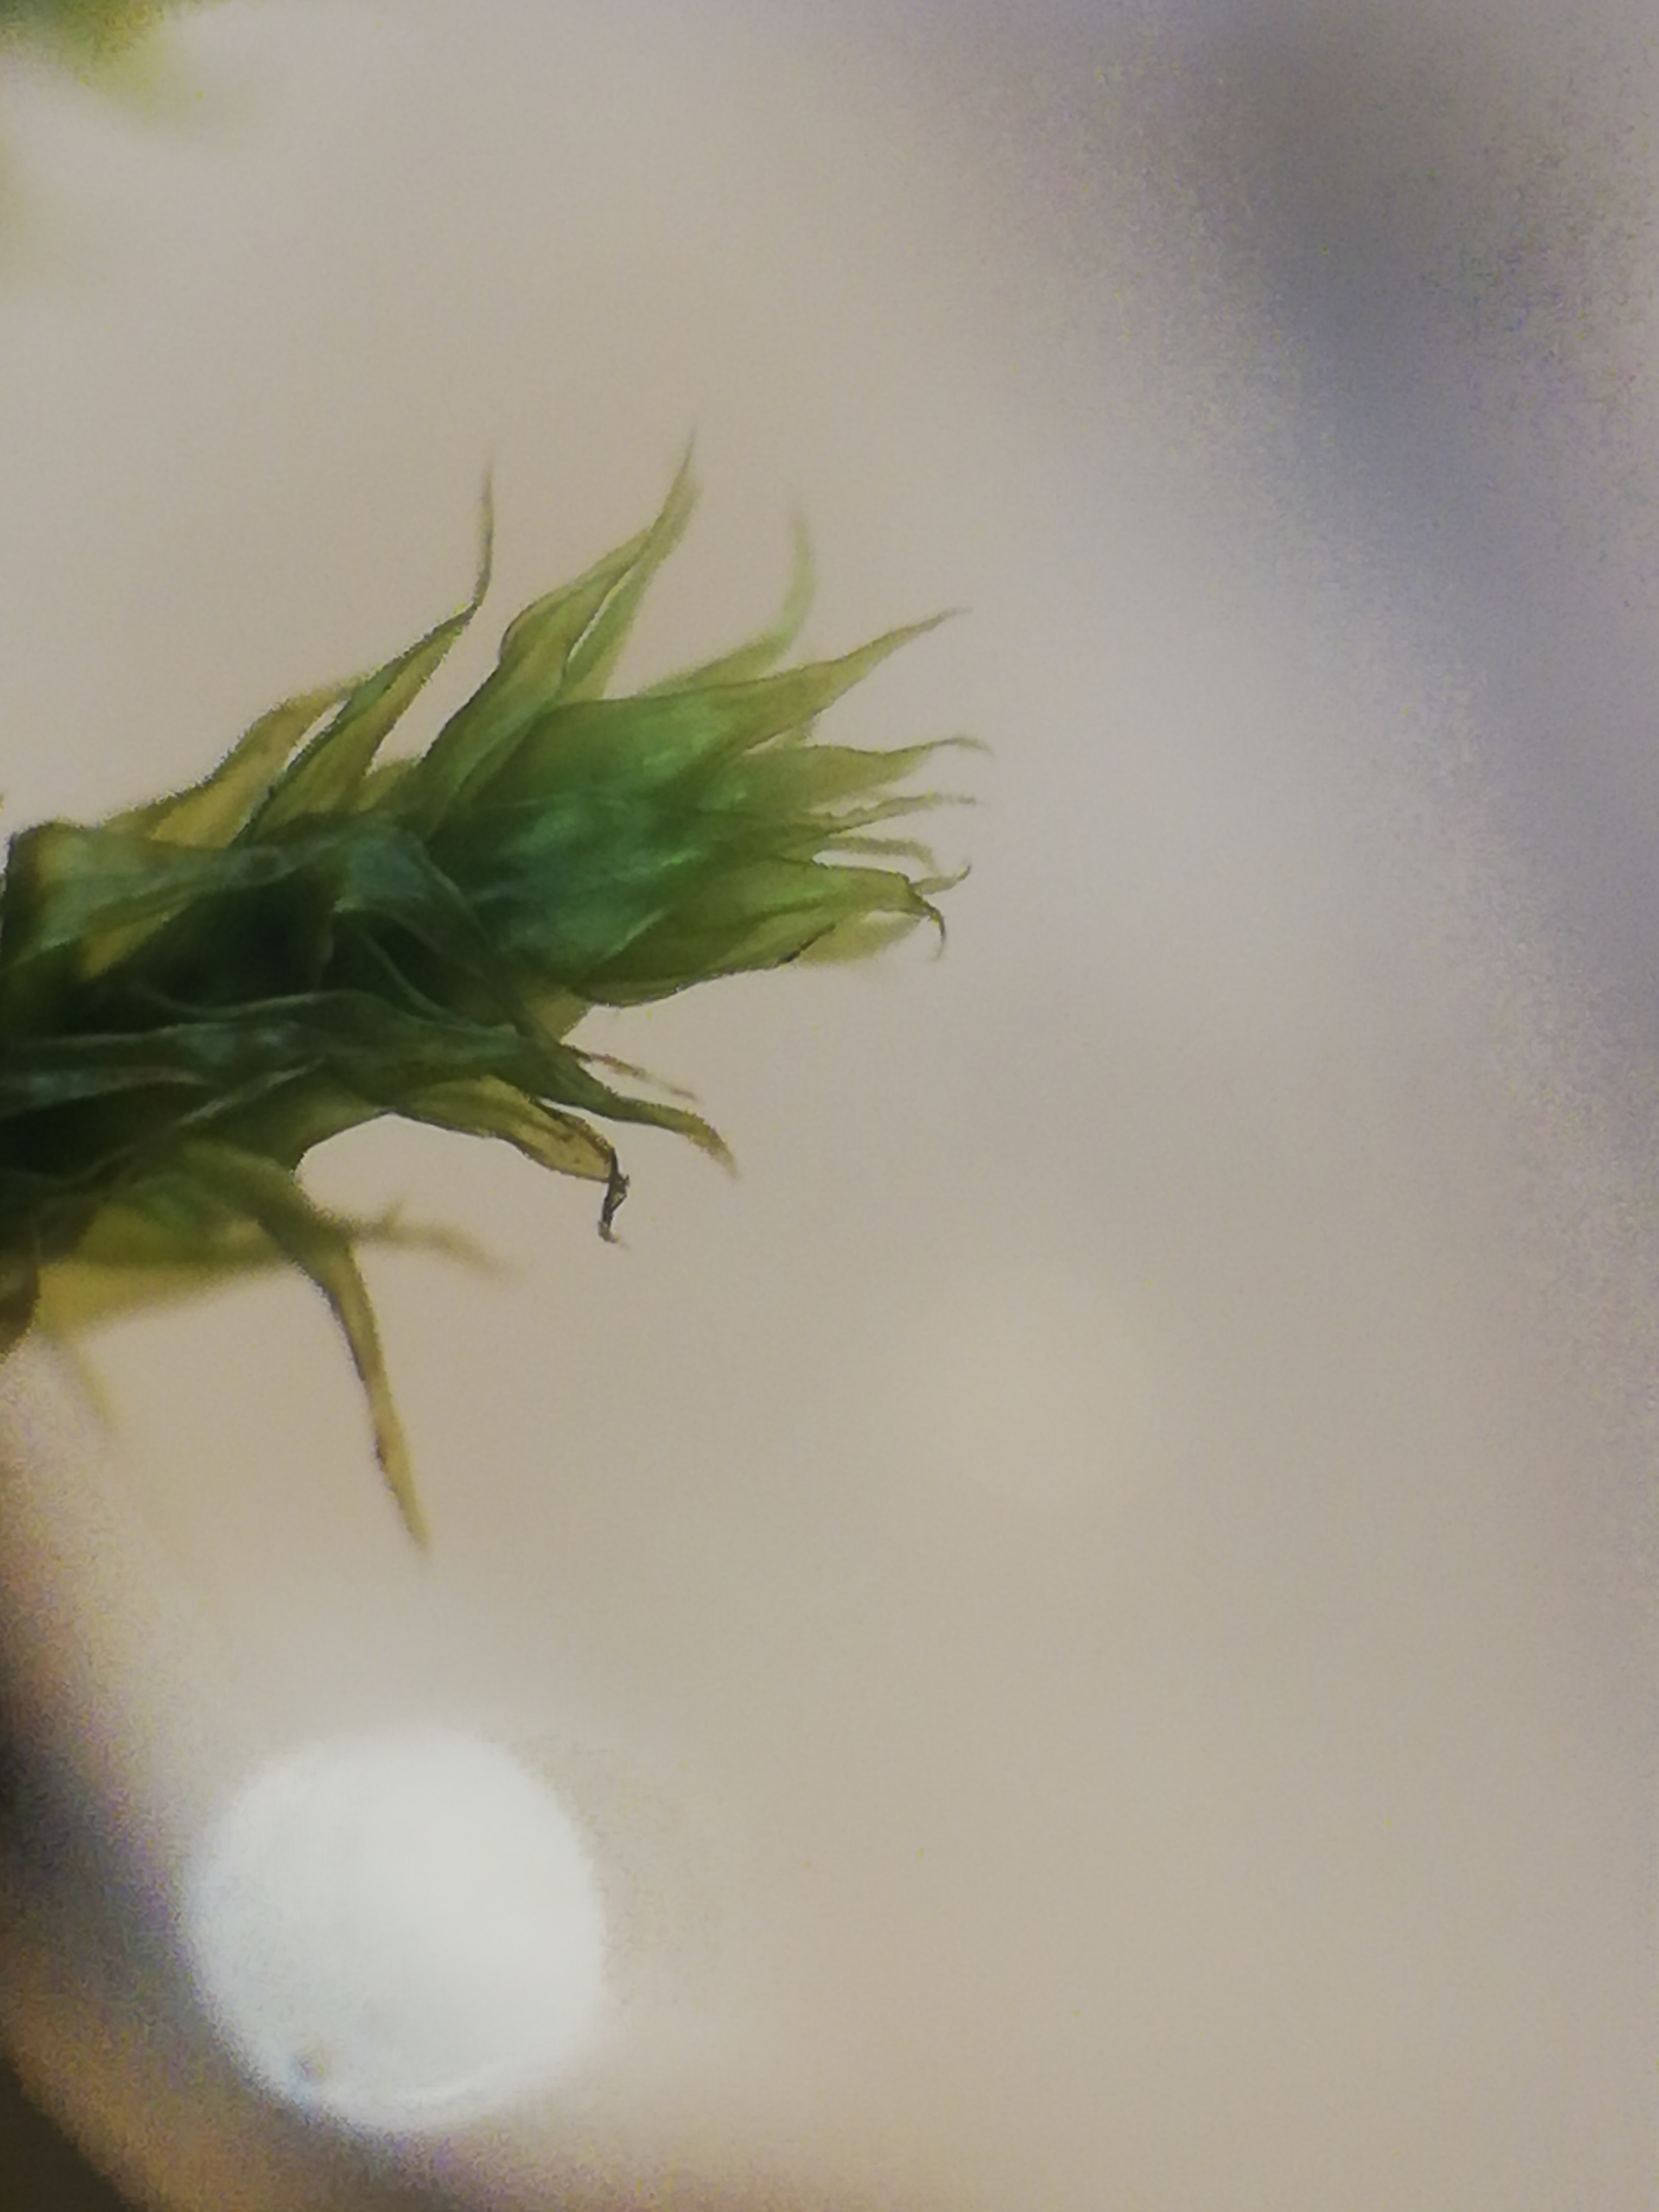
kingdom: Plantae
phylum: Bryophyta
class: Bryopsida
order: Hypnales
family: Antitrichiaceae
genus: Antitrichia
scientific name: Antitrichia curtipendula
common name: Åben krogtand
